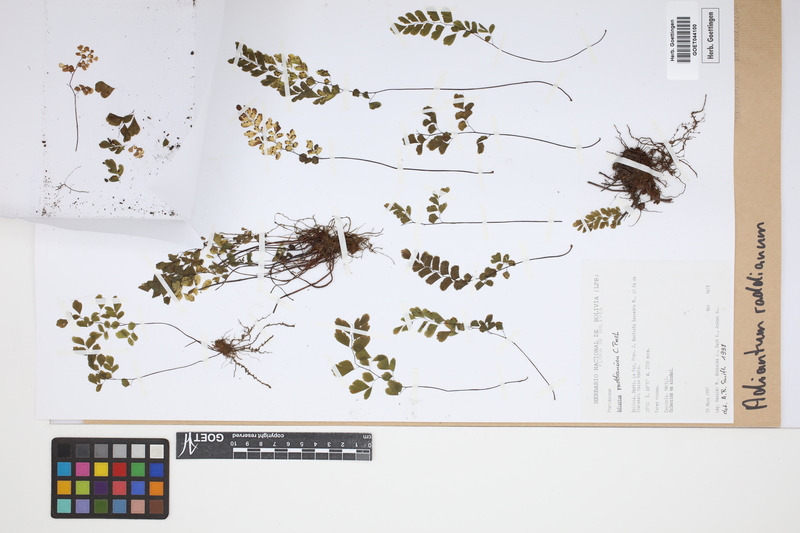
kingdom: Plantae
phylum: Tracheophyta
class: Polypodiopsida
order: Polypodiales
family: Pteridaceae
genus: Adiantum
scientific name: Adiantum raddianum
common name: Delta maidenhair fern
